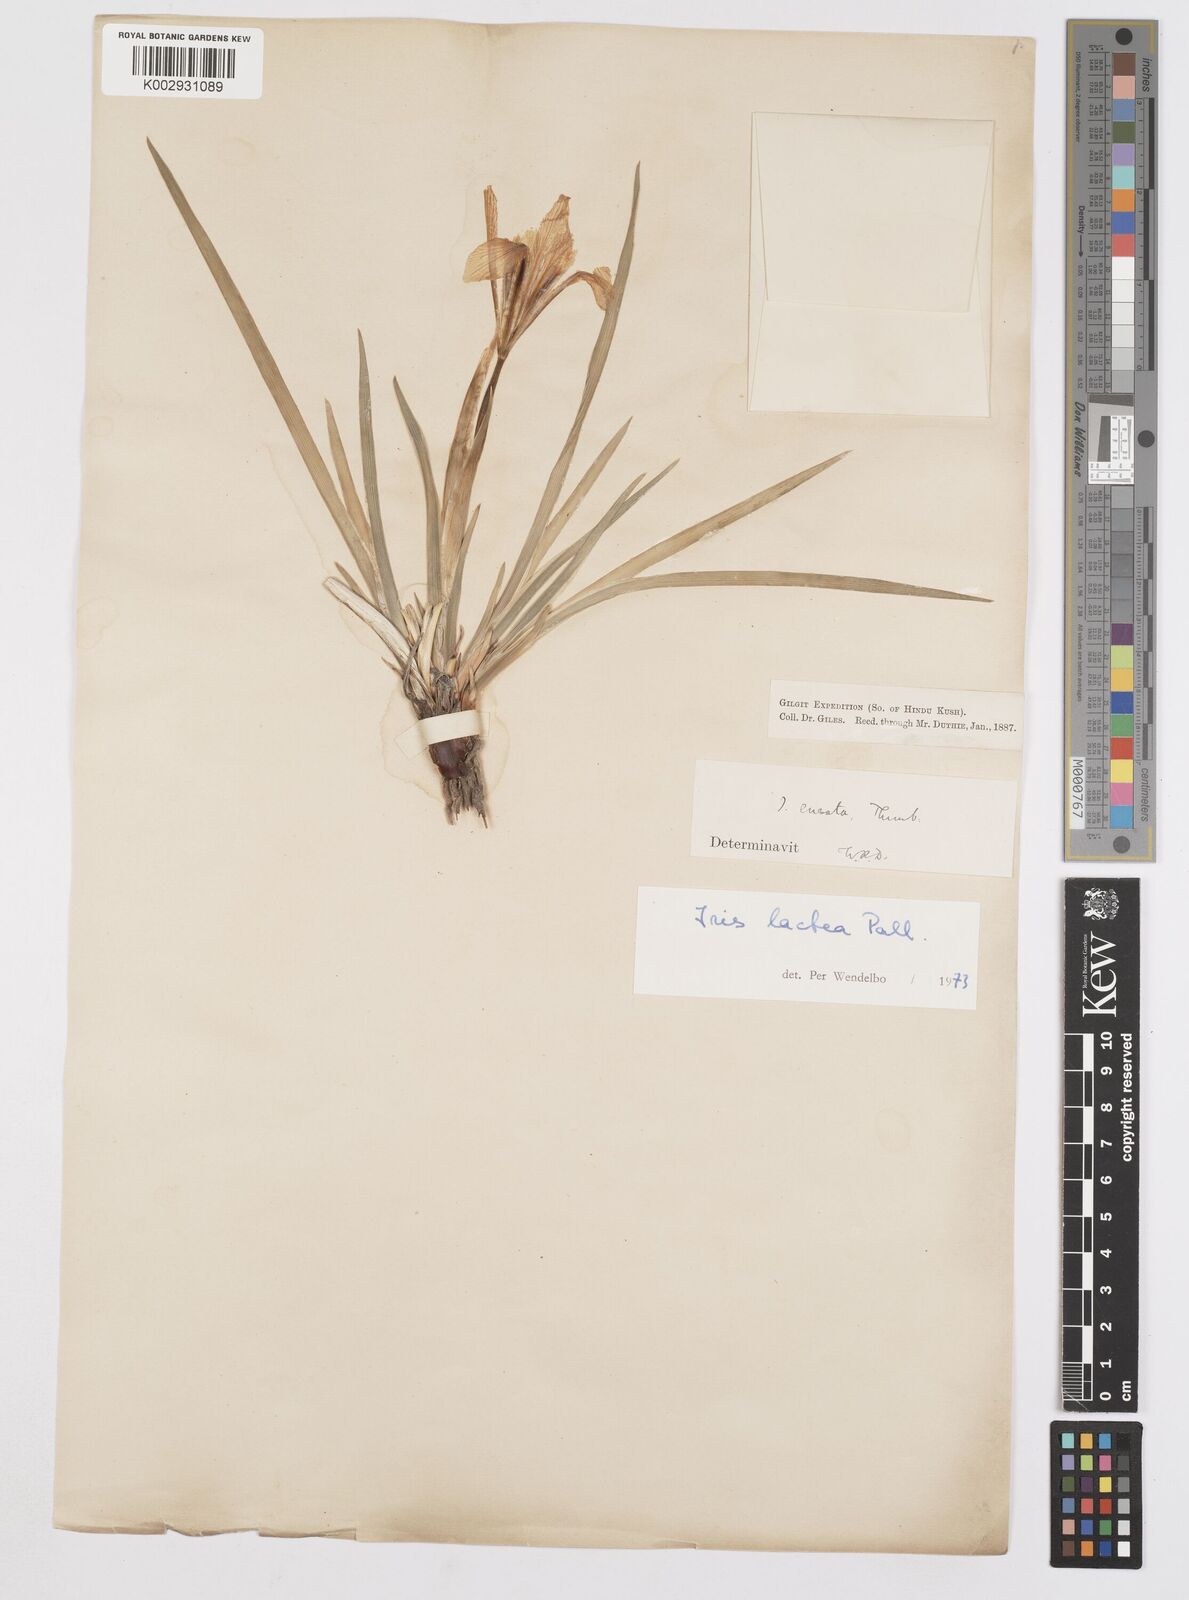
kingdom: Plantae
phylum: Tracheophyta
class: Liliopsida
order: Asparagales
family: Iridaceae
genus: Iris
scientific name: Iris lactea
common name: White-flower chinese iris
